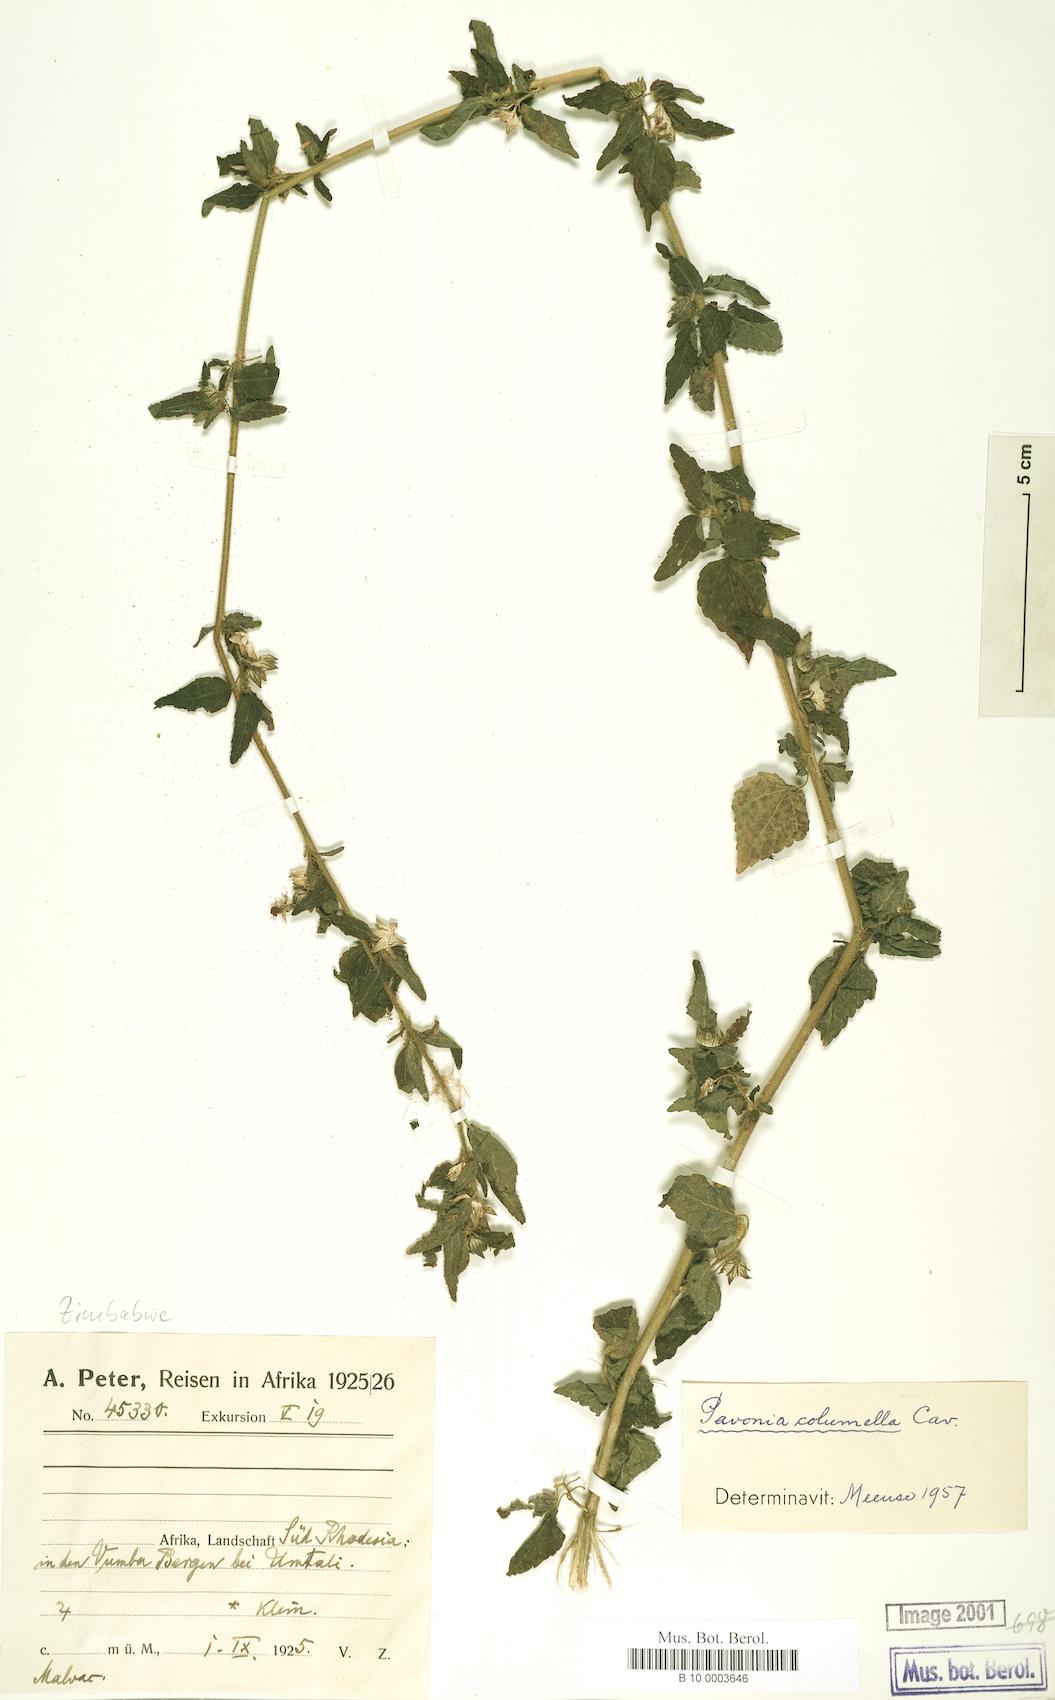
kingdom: Plantae
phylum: Tracheophyta
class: Magnoliopsida
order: Malvales
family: Malvaceae
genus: Pavonia
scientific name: Pavonia columella
